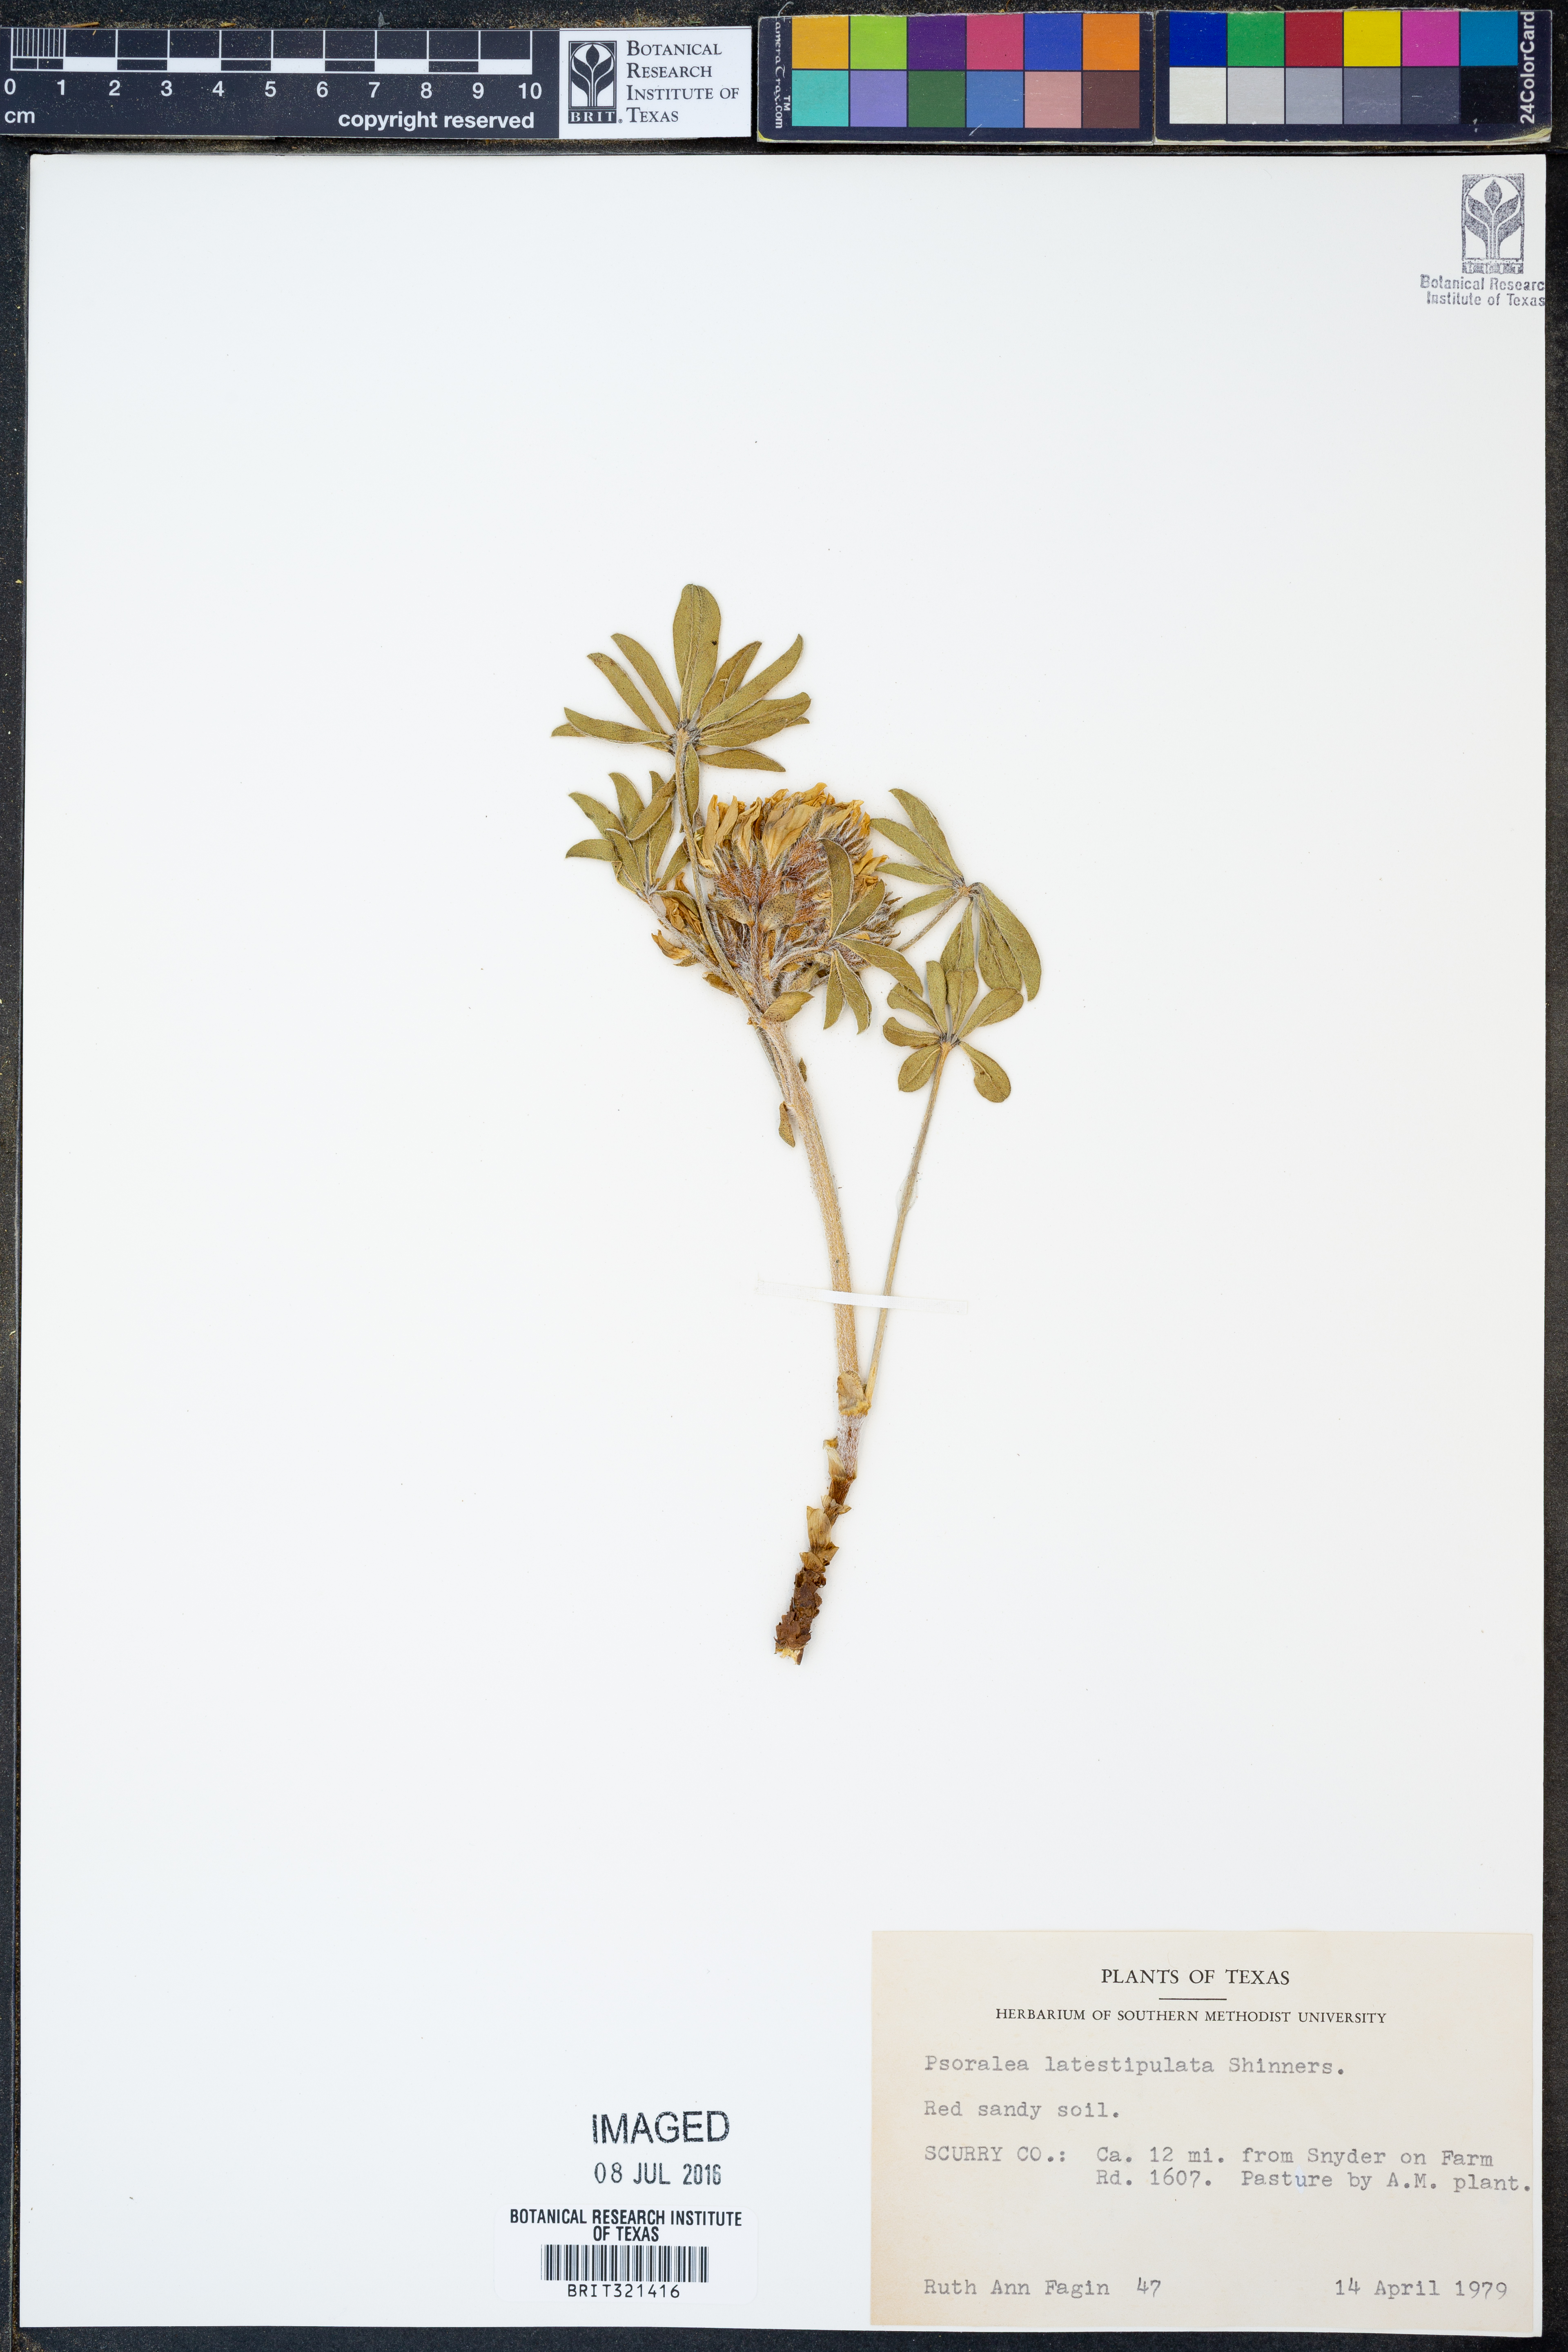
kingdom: Plantae
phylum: Tracheophyta
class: Magnoliopsida
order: Fabales
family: Fabaceae
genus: Pediomelum
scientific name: Pediomelum latestipulatum
